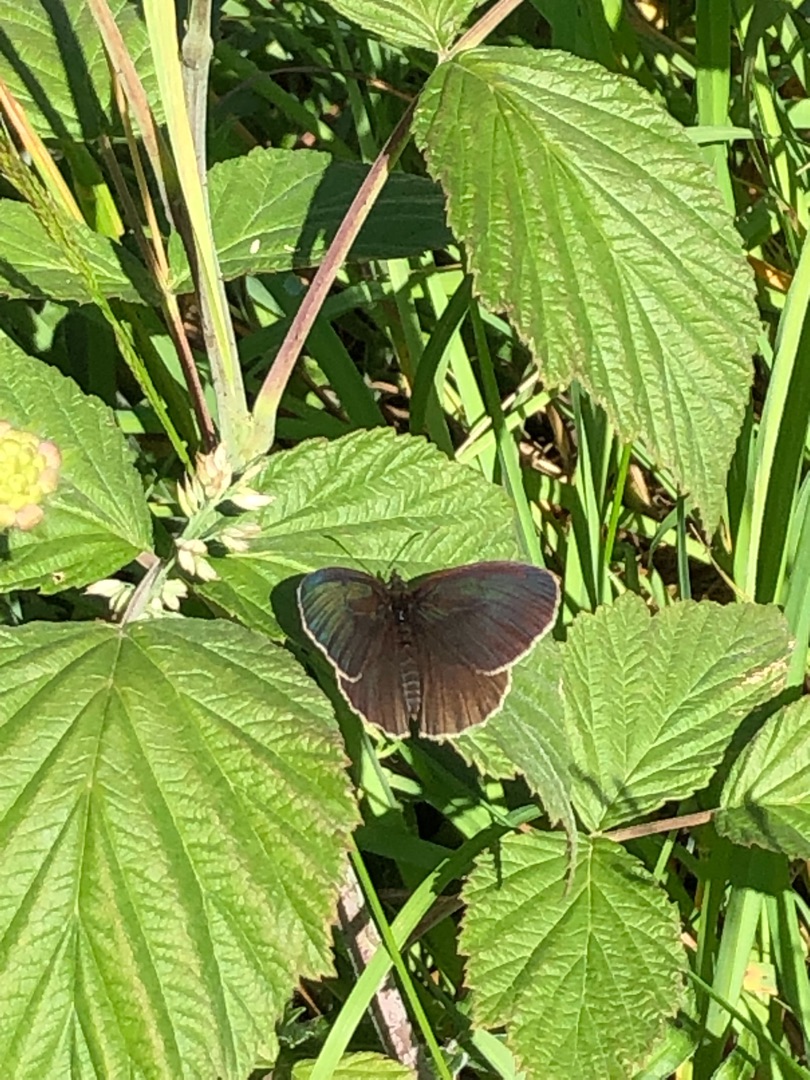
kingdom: Animalia
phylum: Arthropoda
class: Insecta
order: Lepidoptera
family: Nymphalidae
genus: Aphantopus
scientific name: Aphantopus hyperantus
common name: Engrandøje
